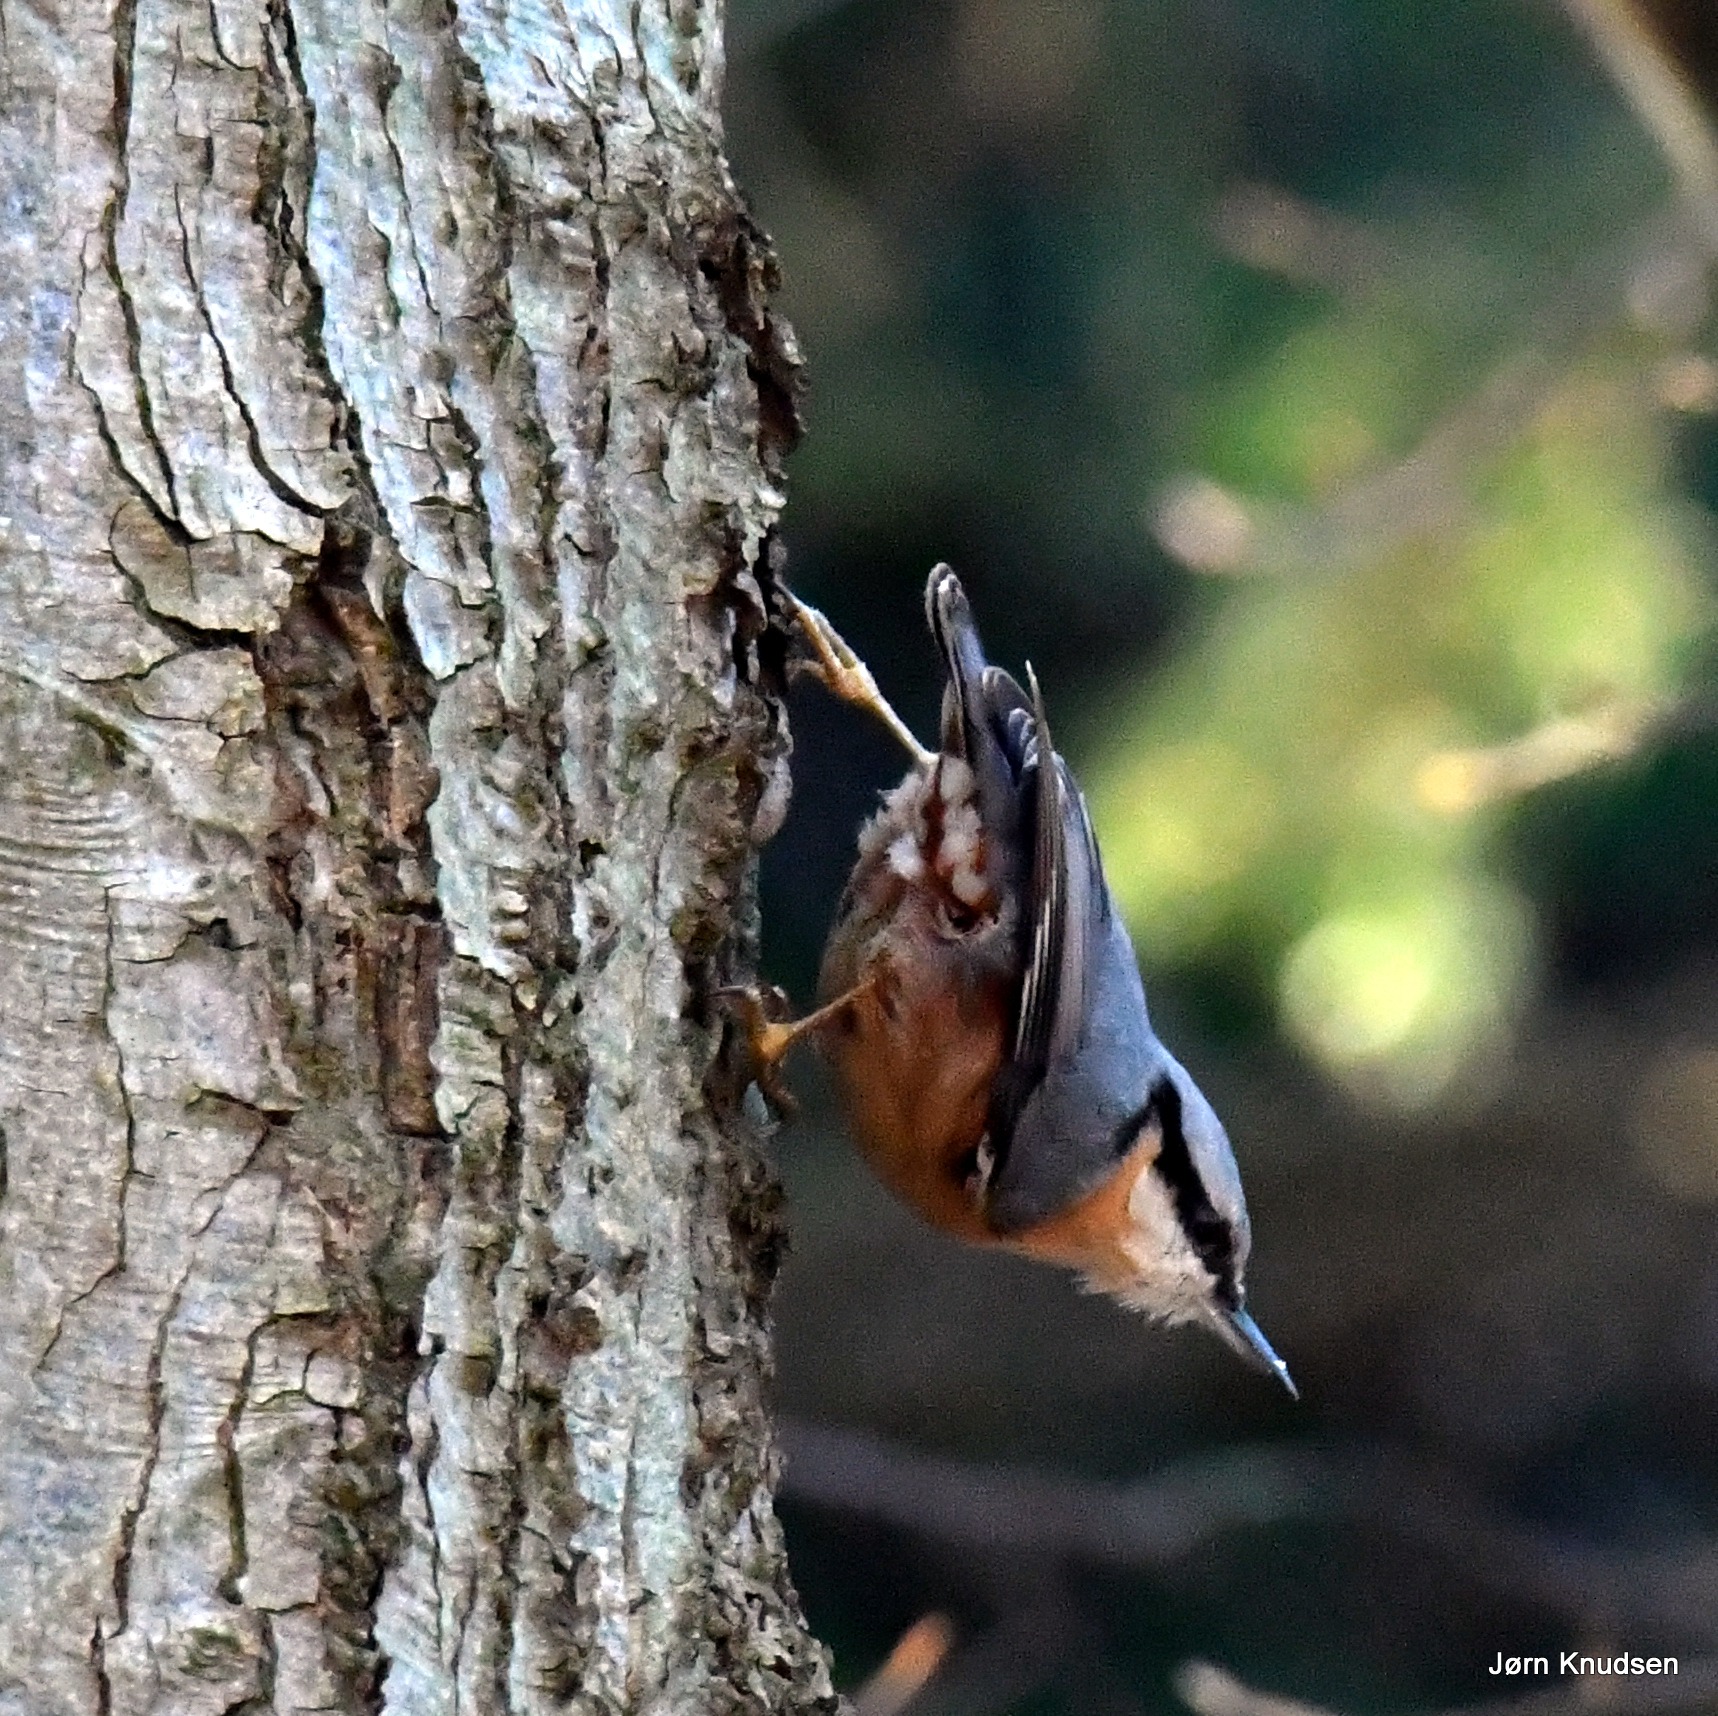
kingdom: Animalia
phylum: Chordata
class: Aves
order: Passeriformes
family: Sittidae
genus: Sitta
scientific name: Sitta europaea
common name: Spætmejse
